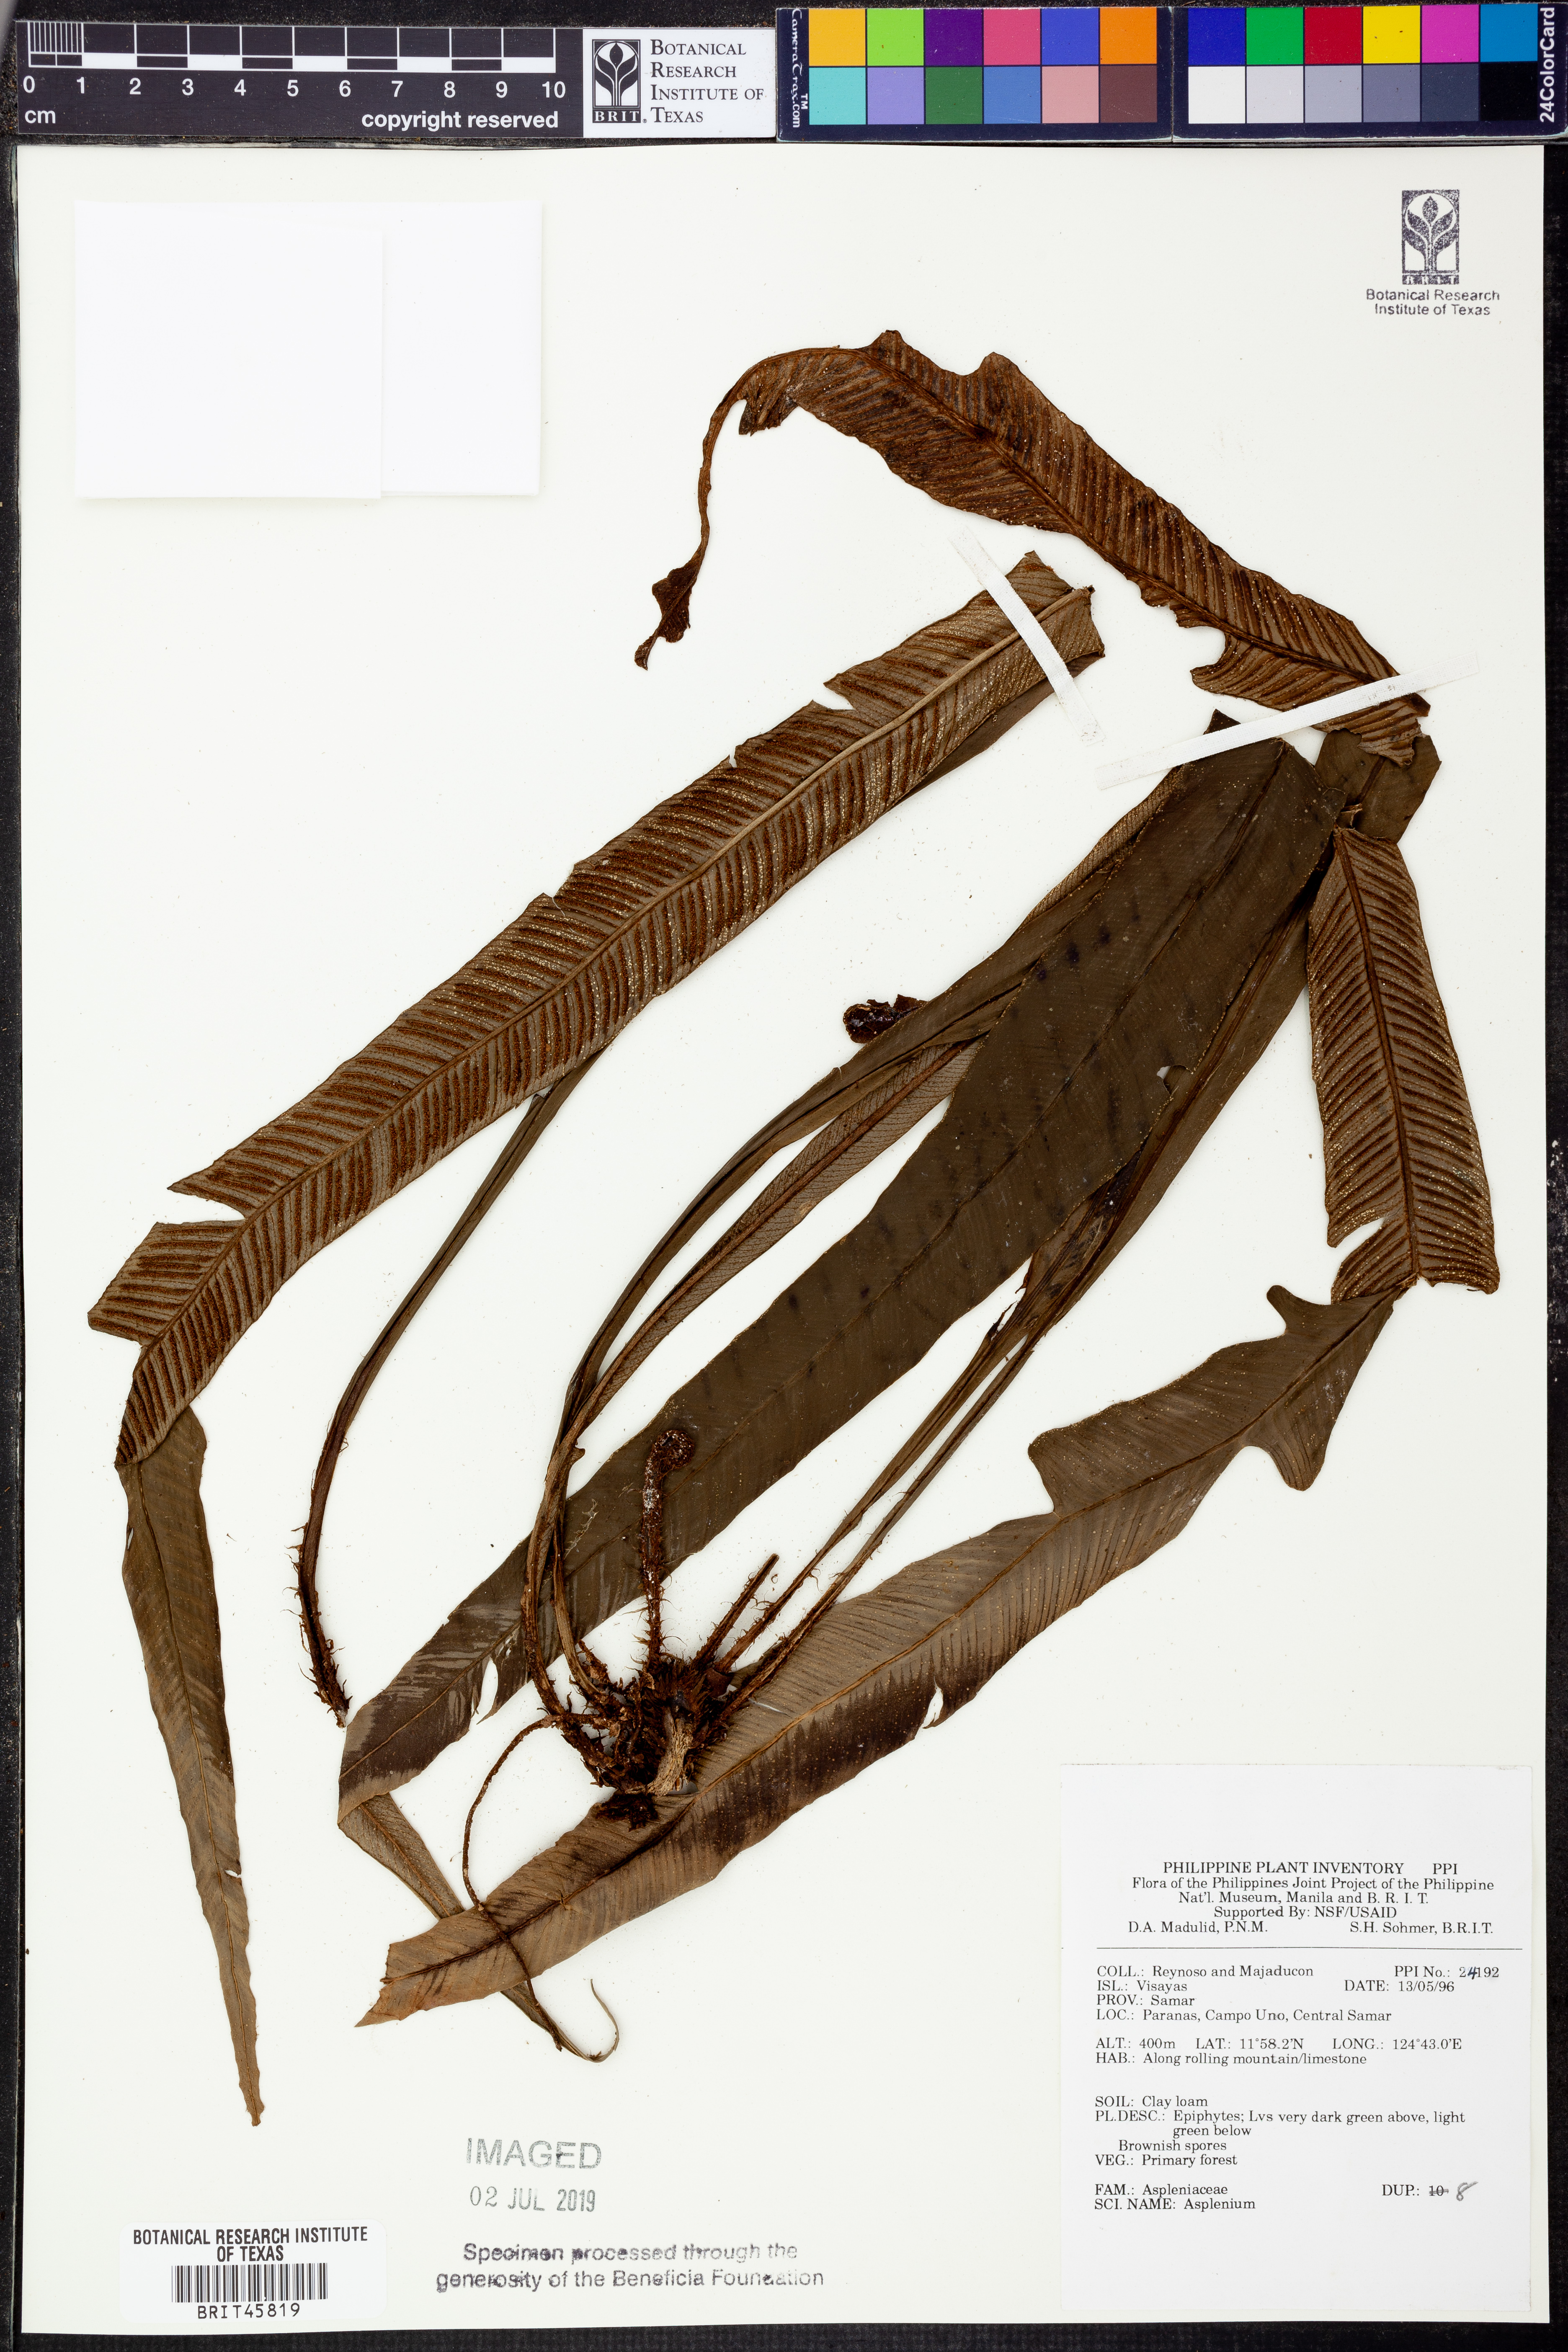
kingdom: Plantae
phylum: Tracheophyta
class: Polypodiopsida
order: Polypodiales
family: Aspleniaceae
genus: Asplenium
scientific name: Asplenium
